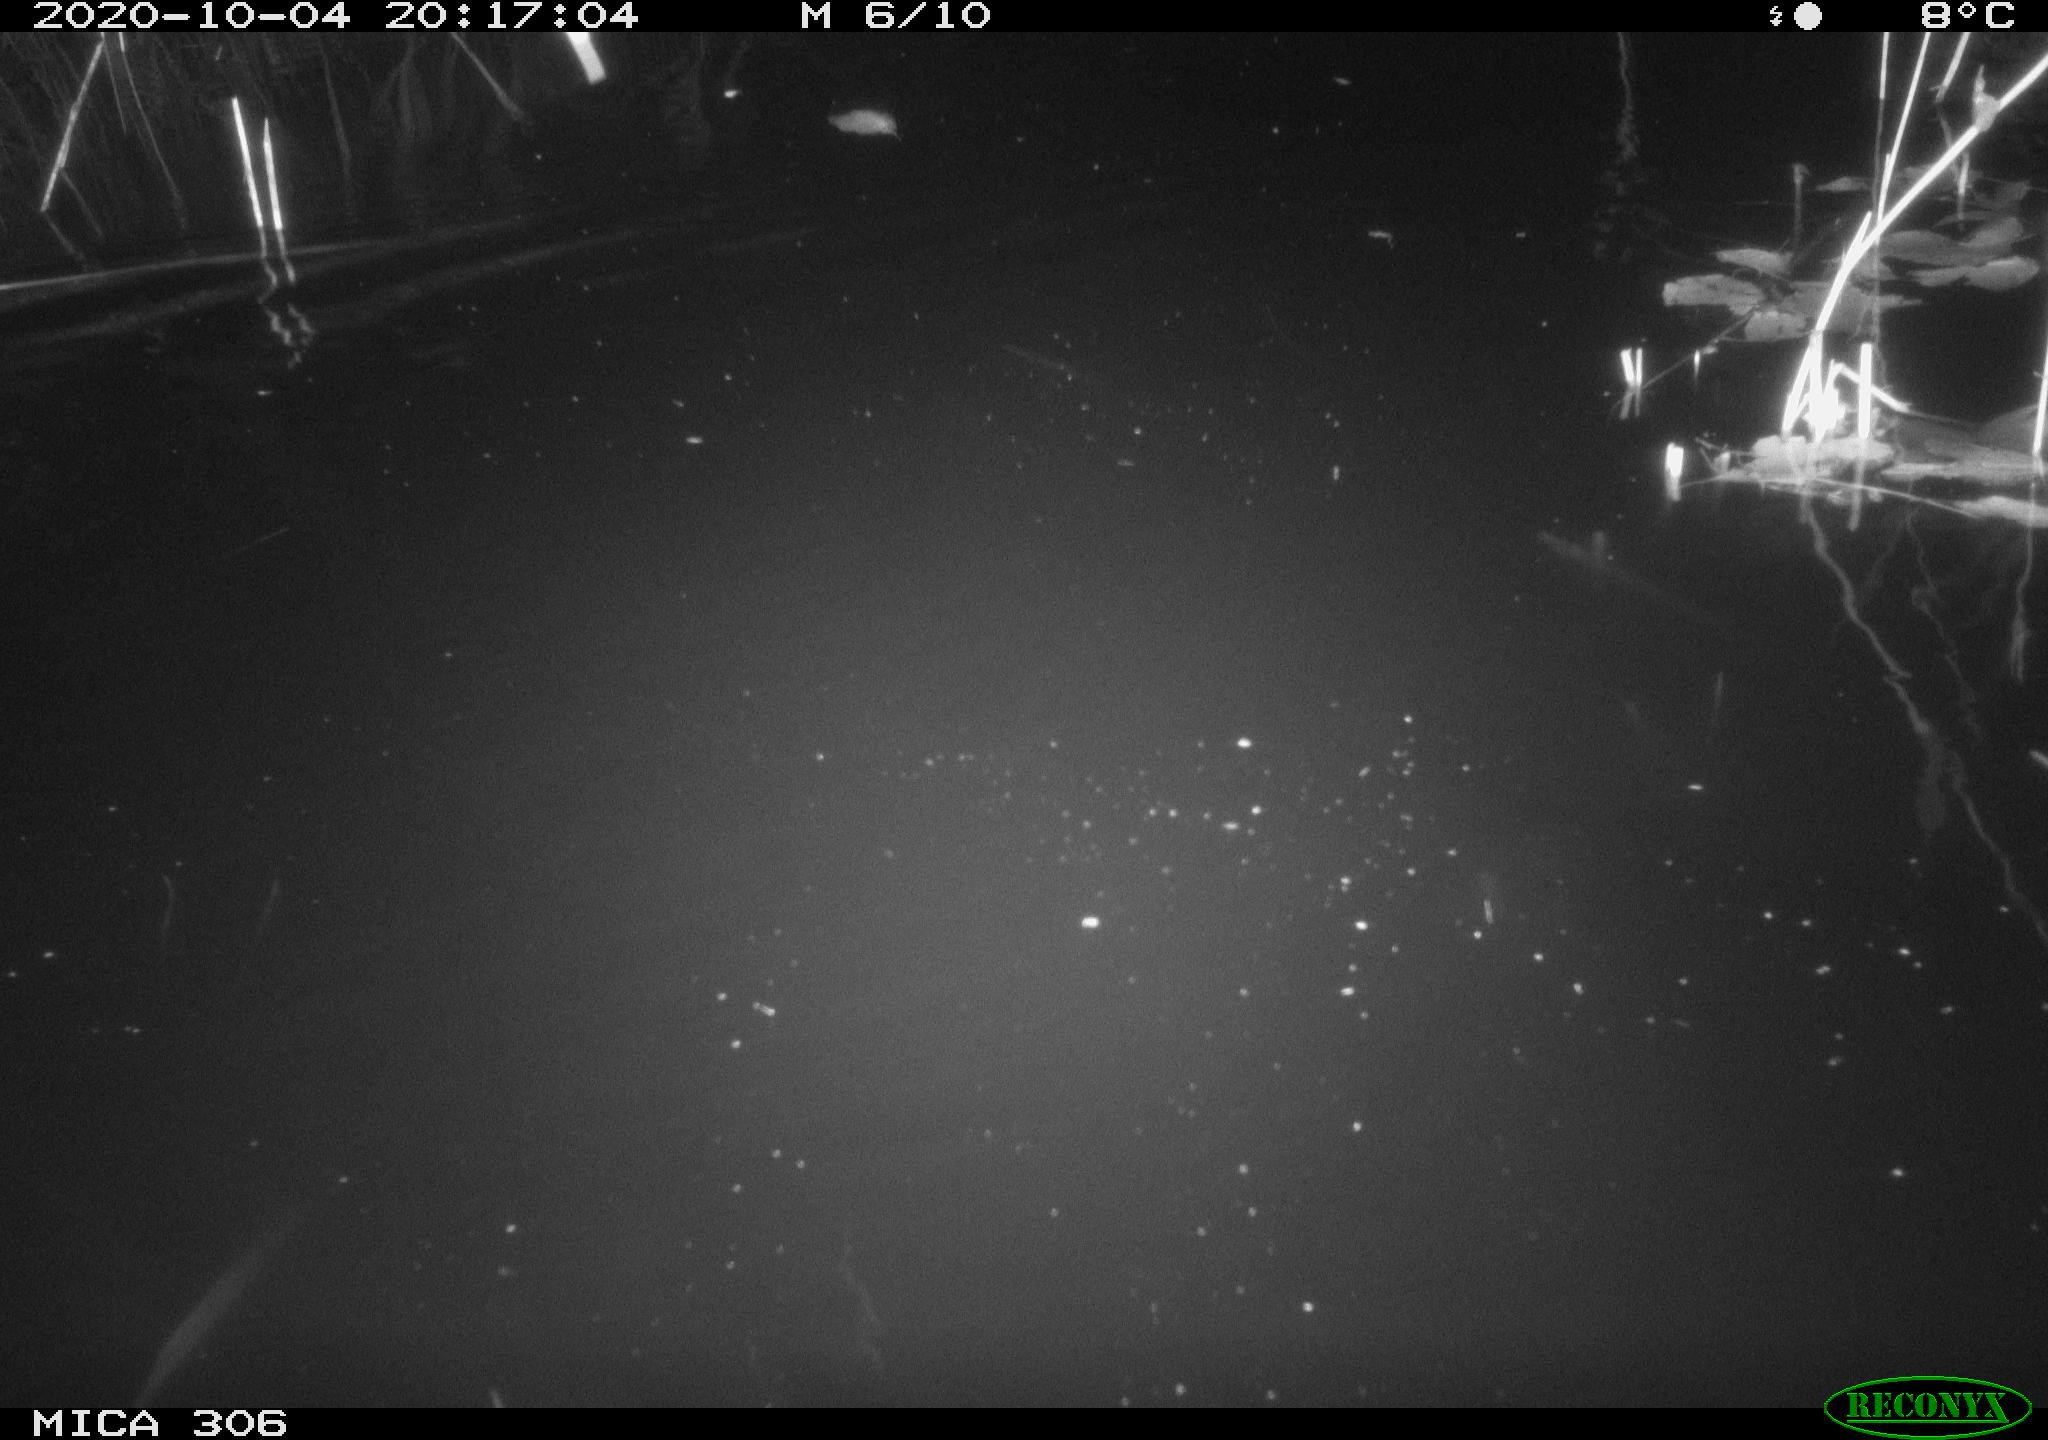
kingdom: Animalia
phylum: Chordata
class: Mammalia
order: Rodentia
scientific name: Rodentia
